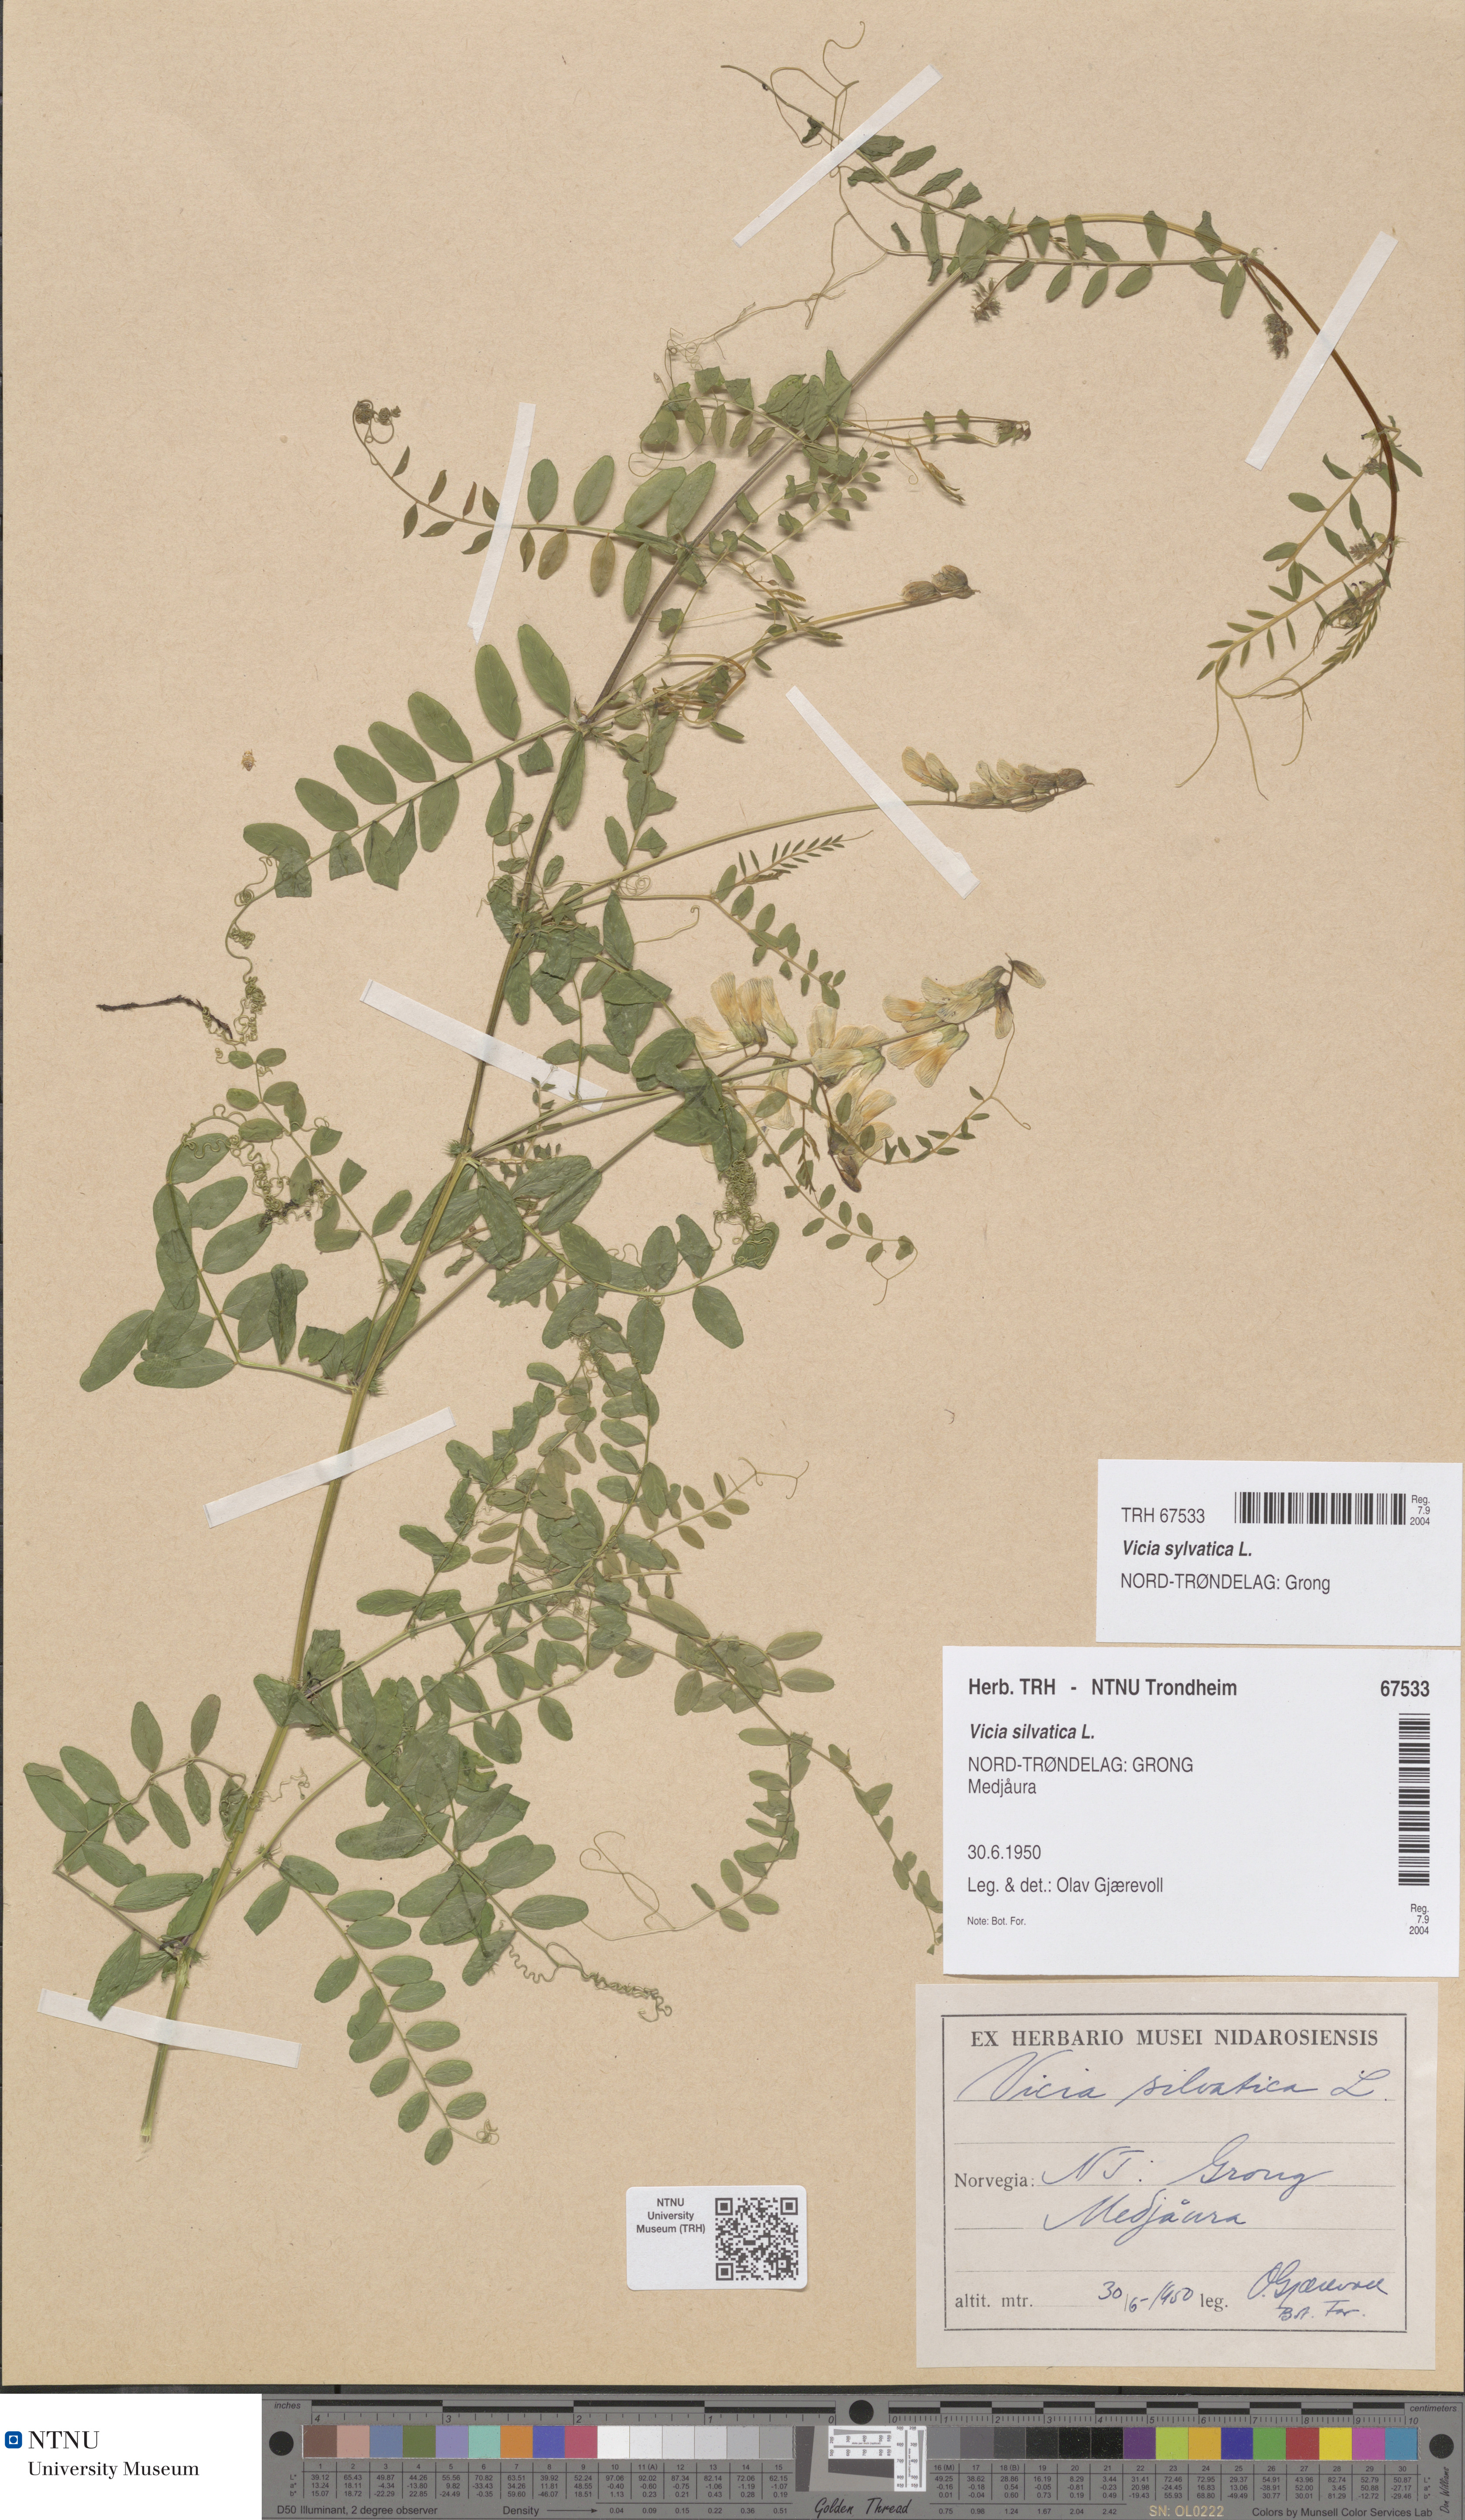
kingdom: Plantae
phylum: Tracheophyta
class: Magnoliopsida
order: Fabales
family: Fabaceae
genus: Vicia
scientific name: Vicia sylvatica
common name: Wood vetch
